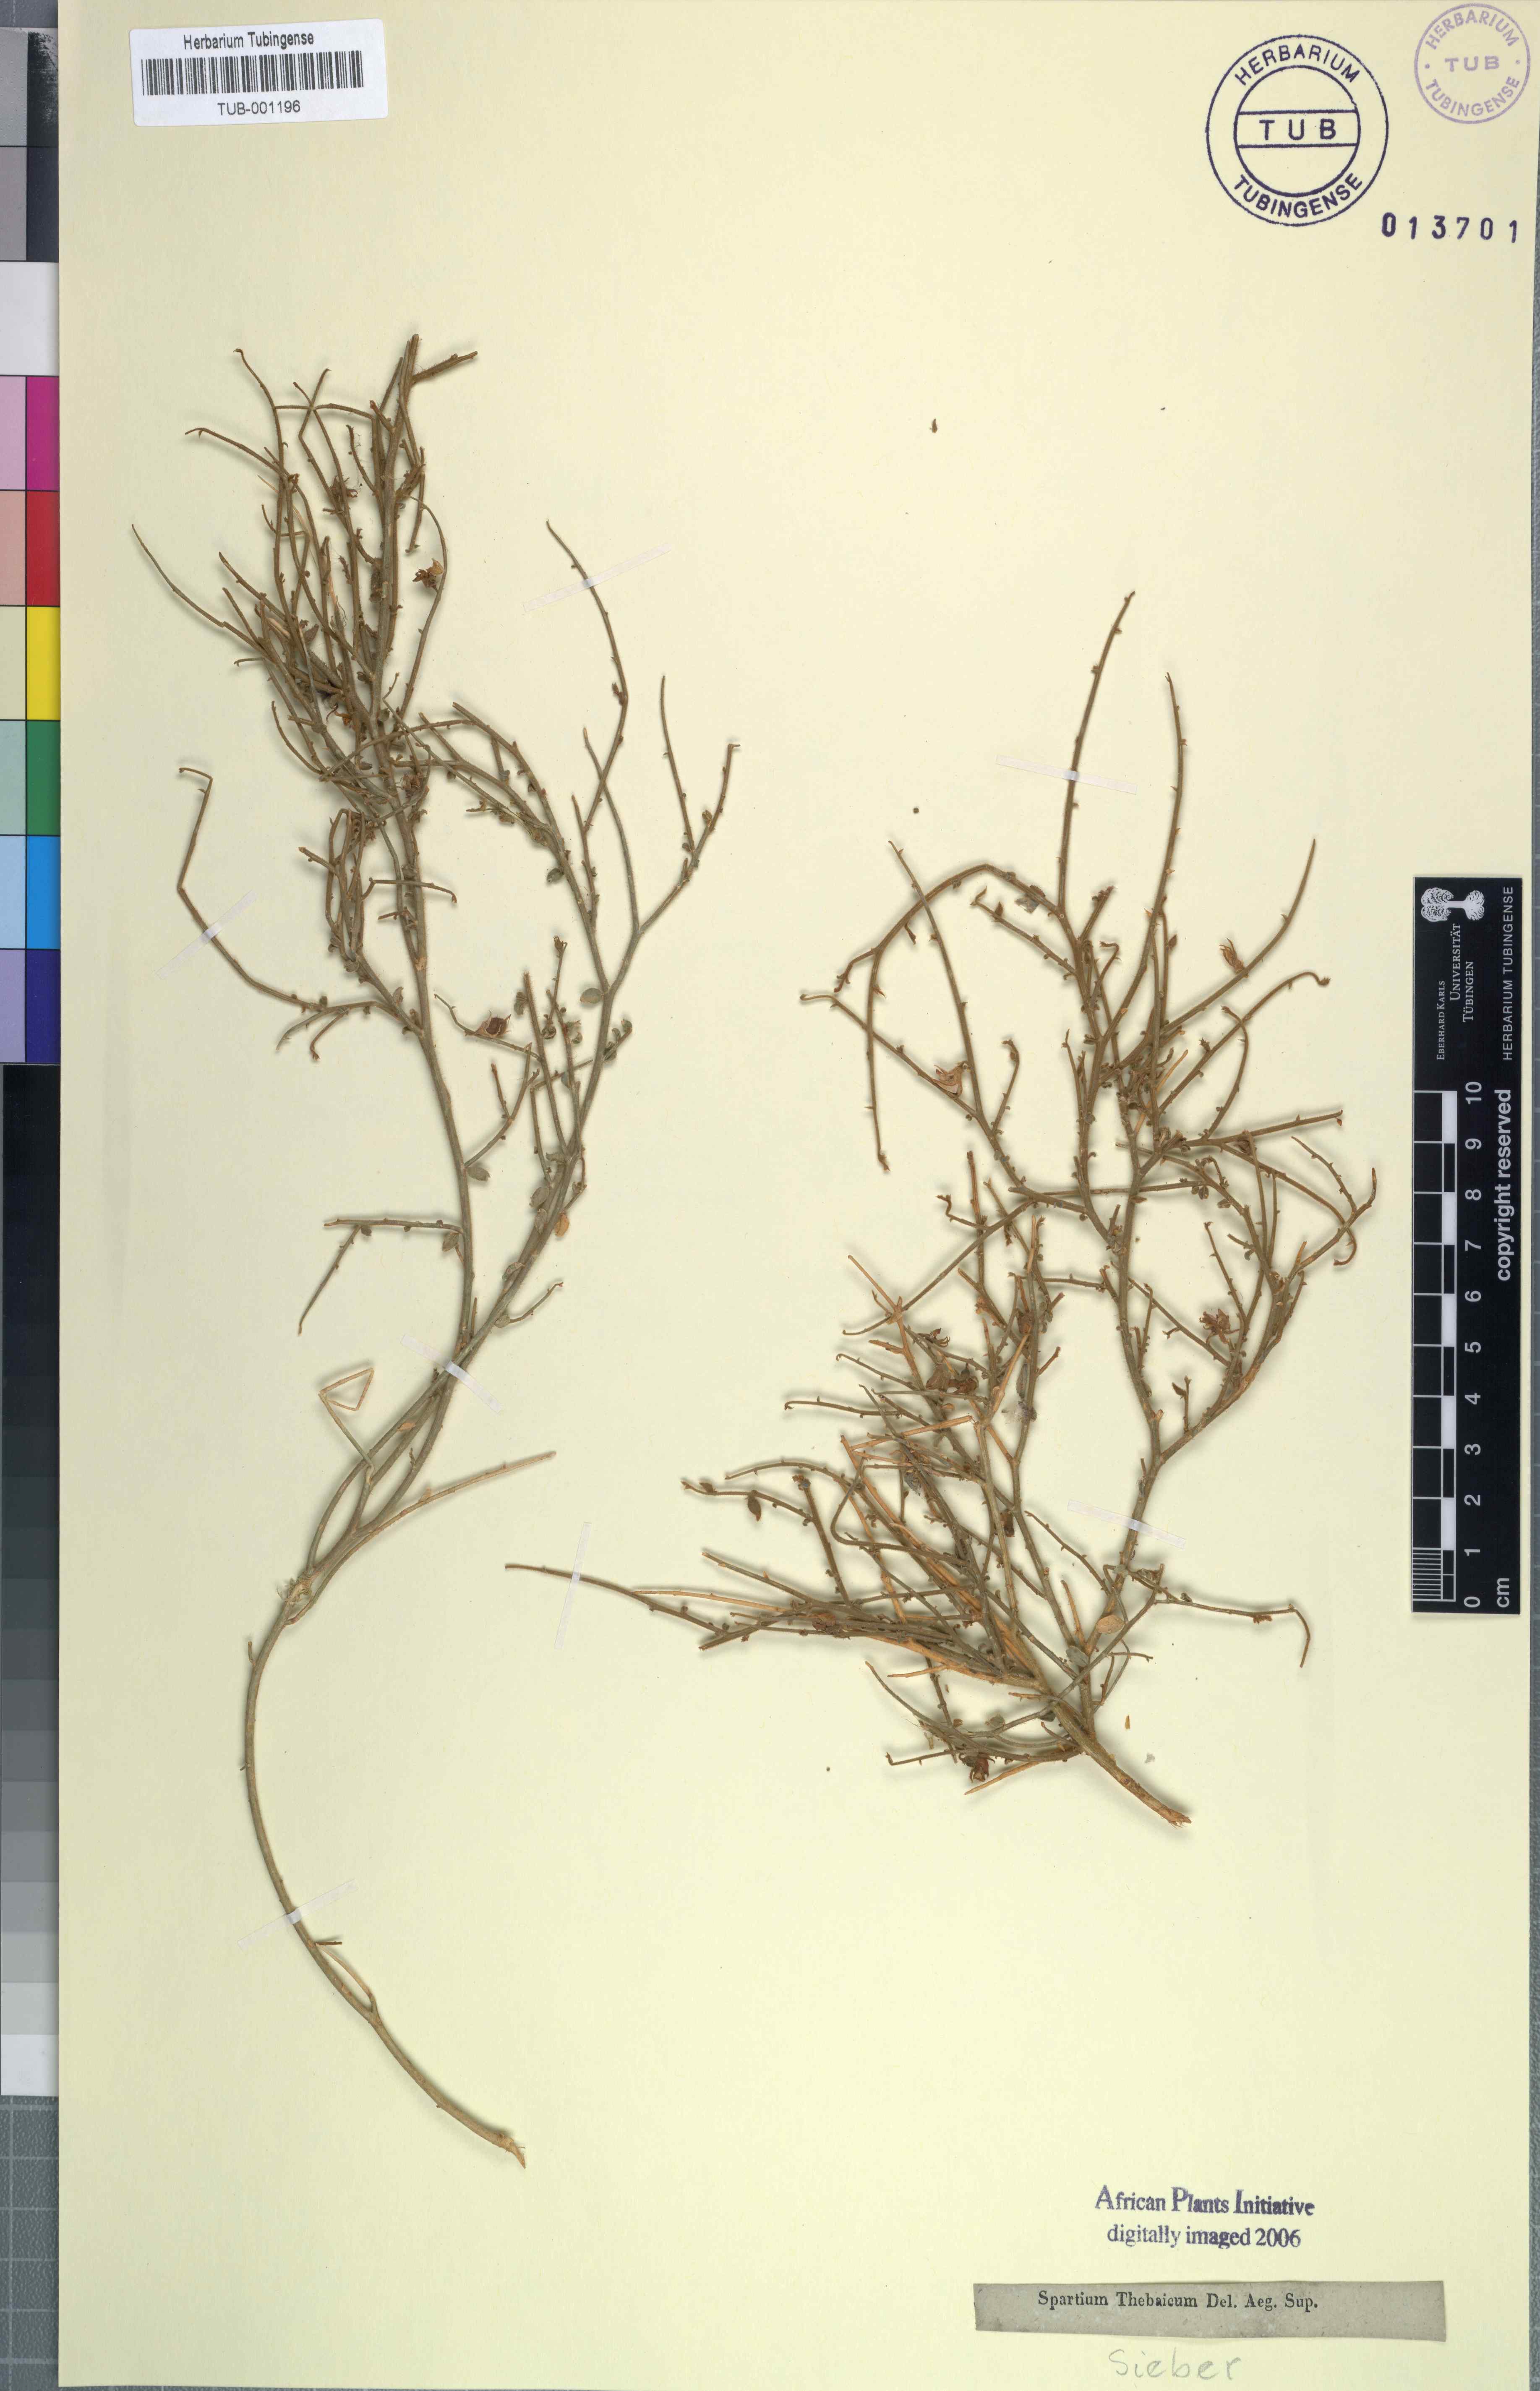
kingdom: Plantae
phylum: Tracheophyta
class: Magnoliopsida
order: Fabales
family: Fabaceae
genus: Crotalaria
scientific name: Crotalaria thebaica
